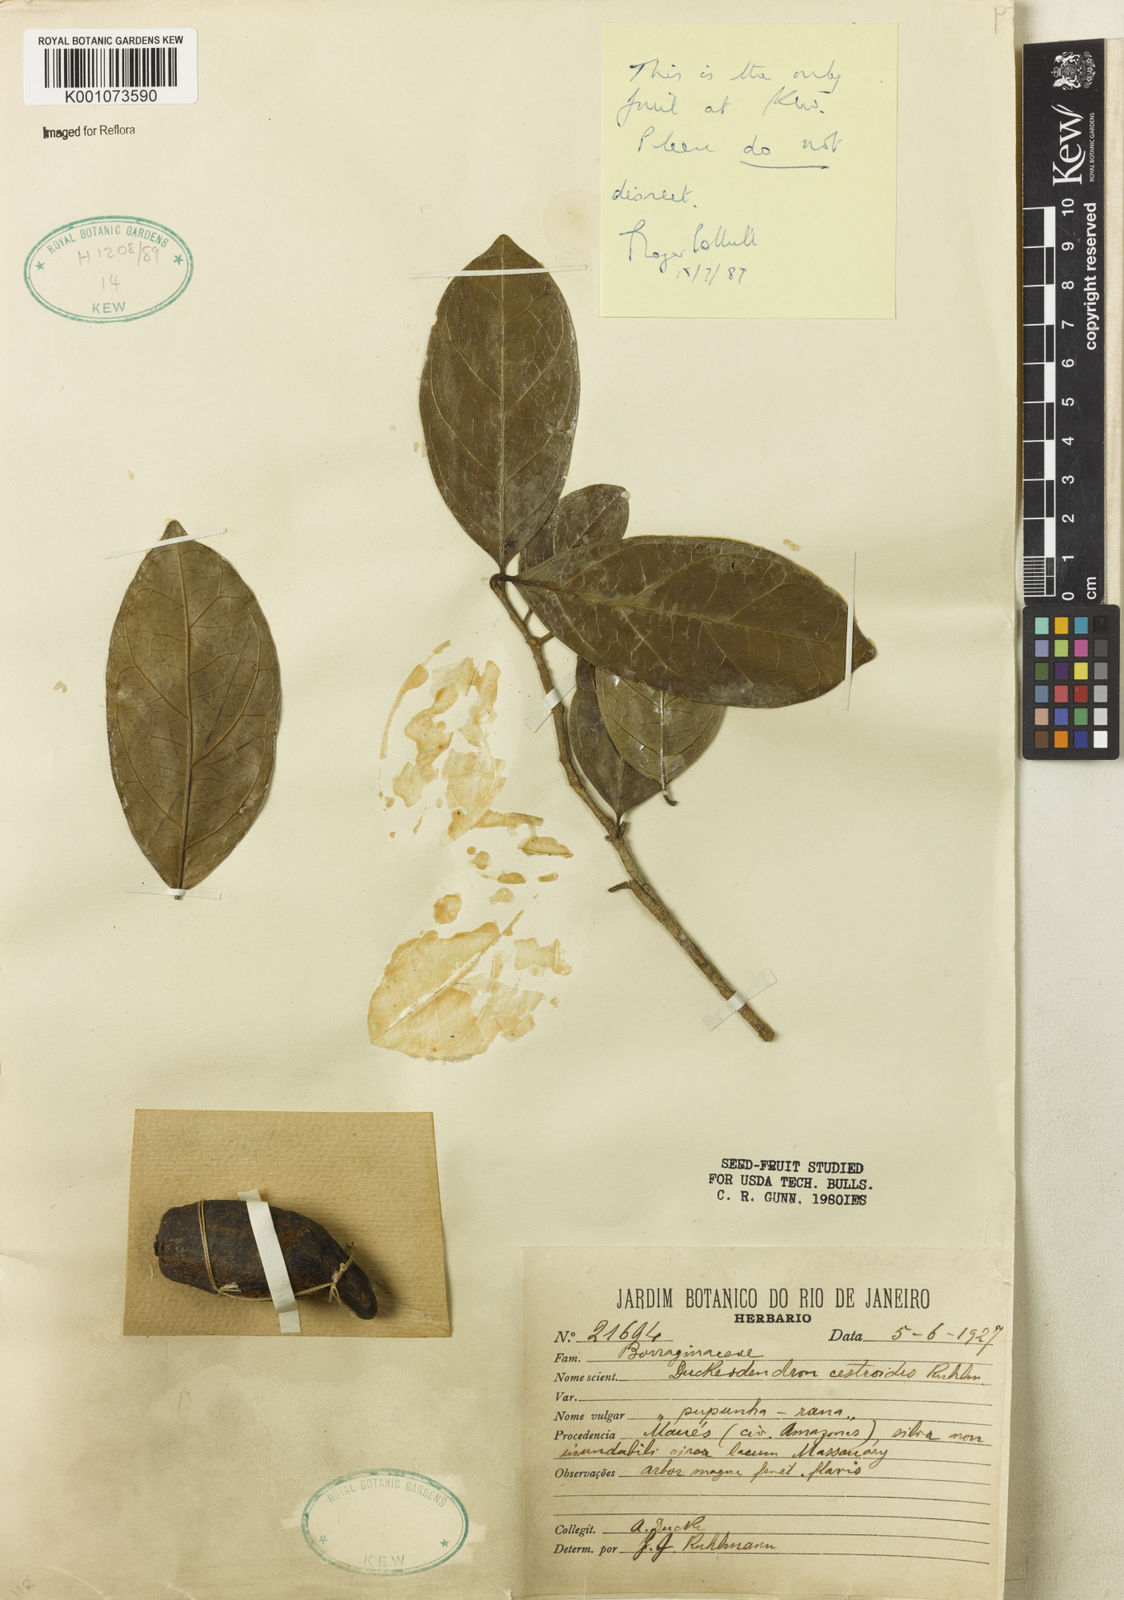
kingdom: Plantae
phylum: Tracheophyta
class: Magnoliopsida
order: Solanales
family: Solanaceae
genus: Duckeodendron
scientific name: Duckeodendron cestroides
